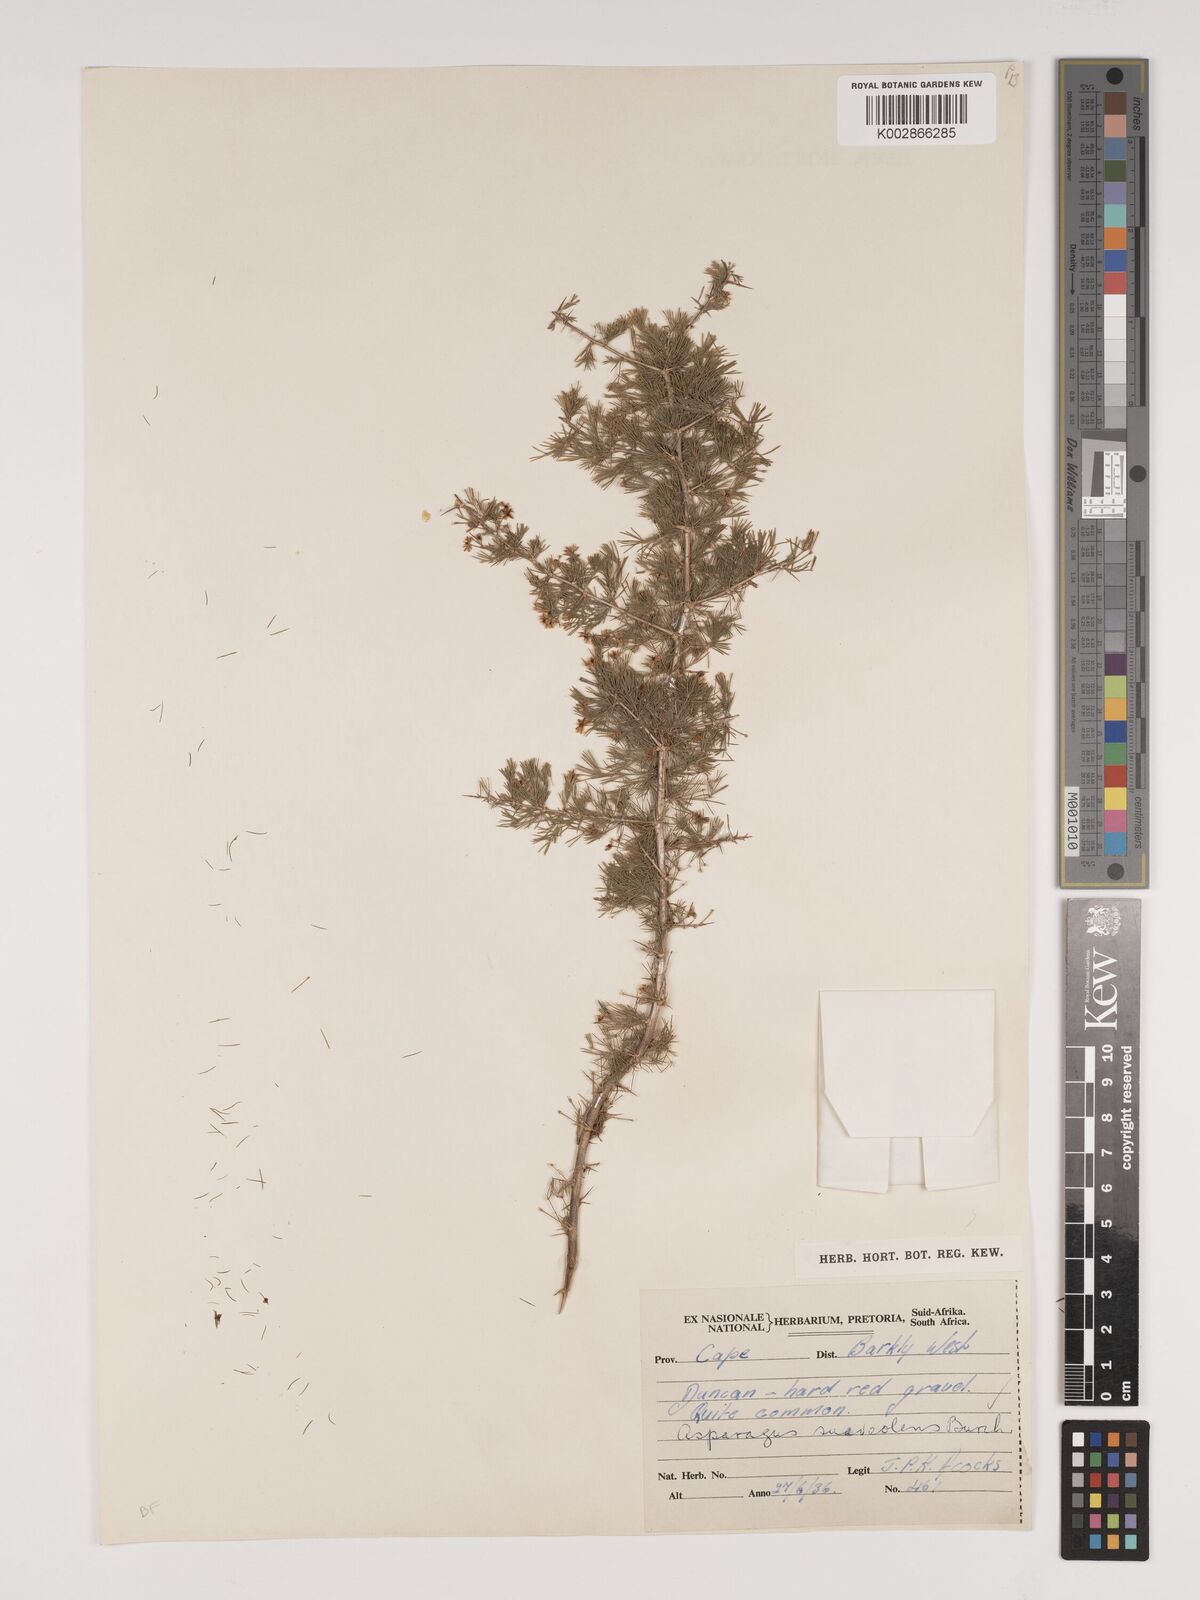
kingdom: Plantae
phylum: Tracheophyta
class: Liliopsida
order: Asparagales
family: Asparagaceae
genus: Asparagus
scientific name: Asparagus suaveolens
